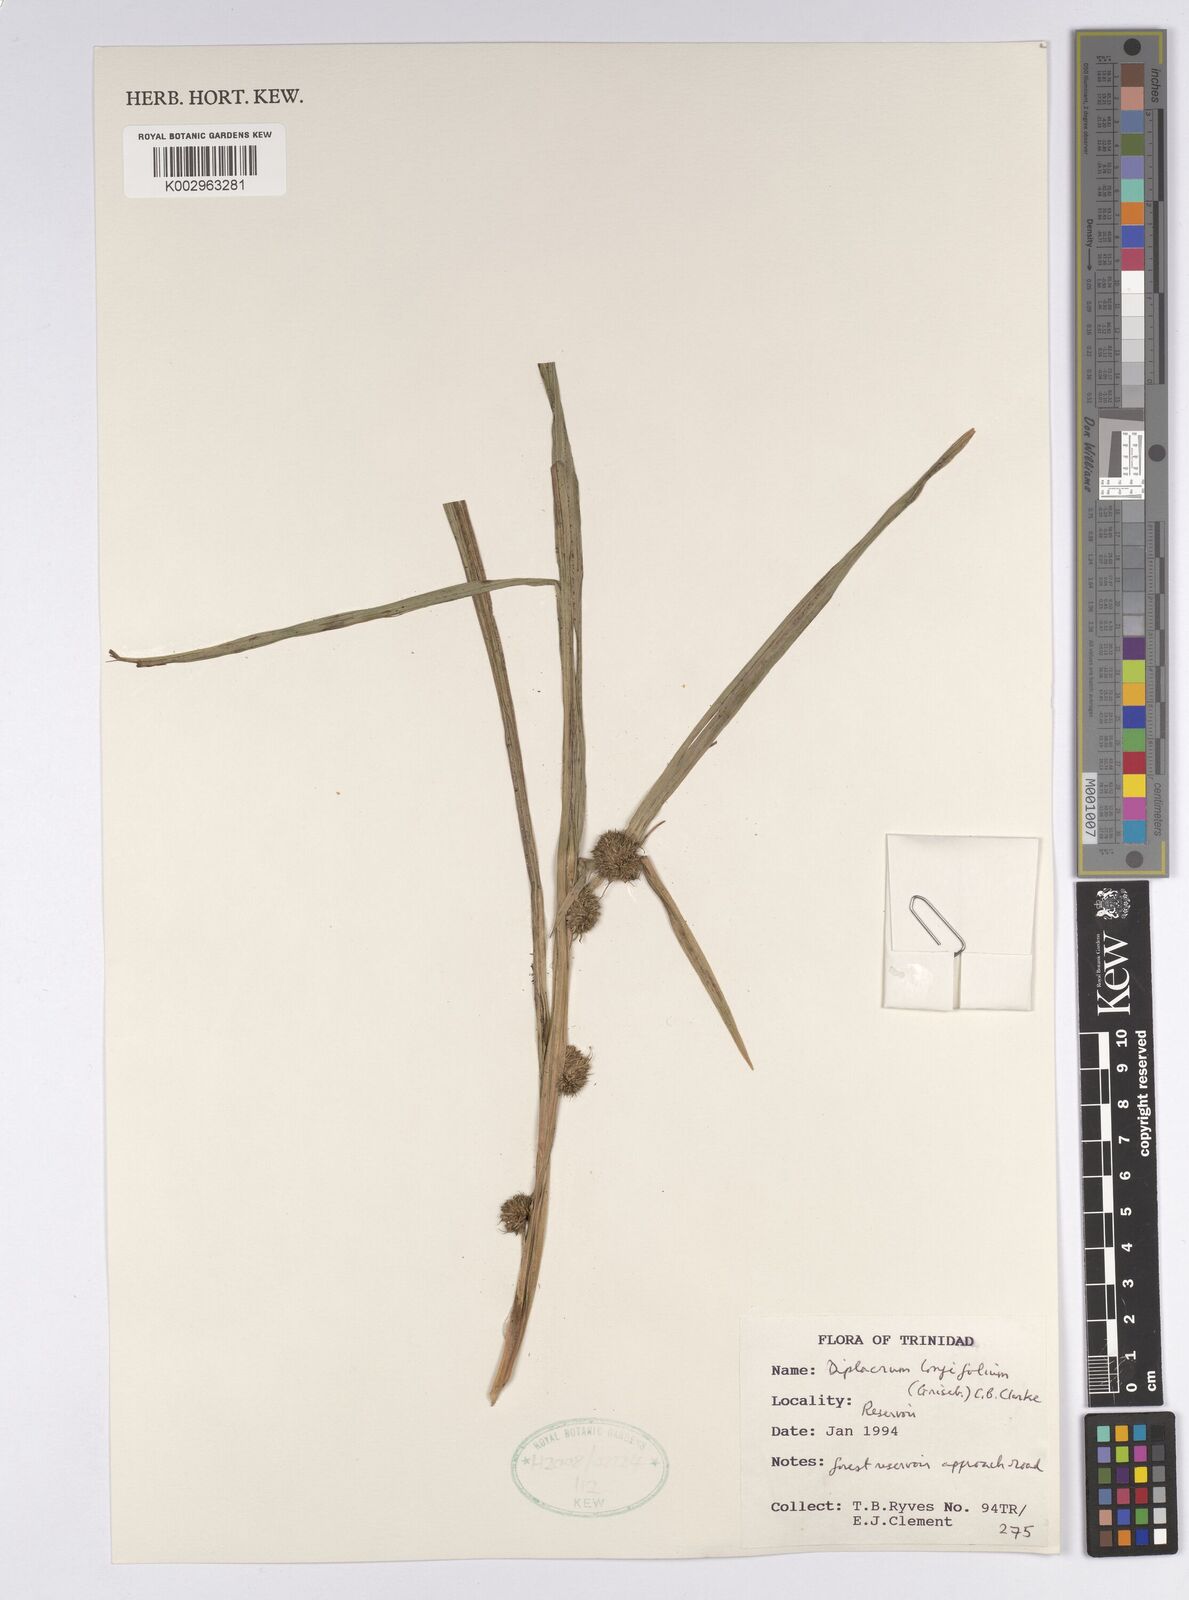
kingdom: Plantae
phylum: Tracheophyta
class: Liliopsida
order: Poales
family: Cyperaceae
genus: Diplacrum
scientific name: Diplacrum capitatum
